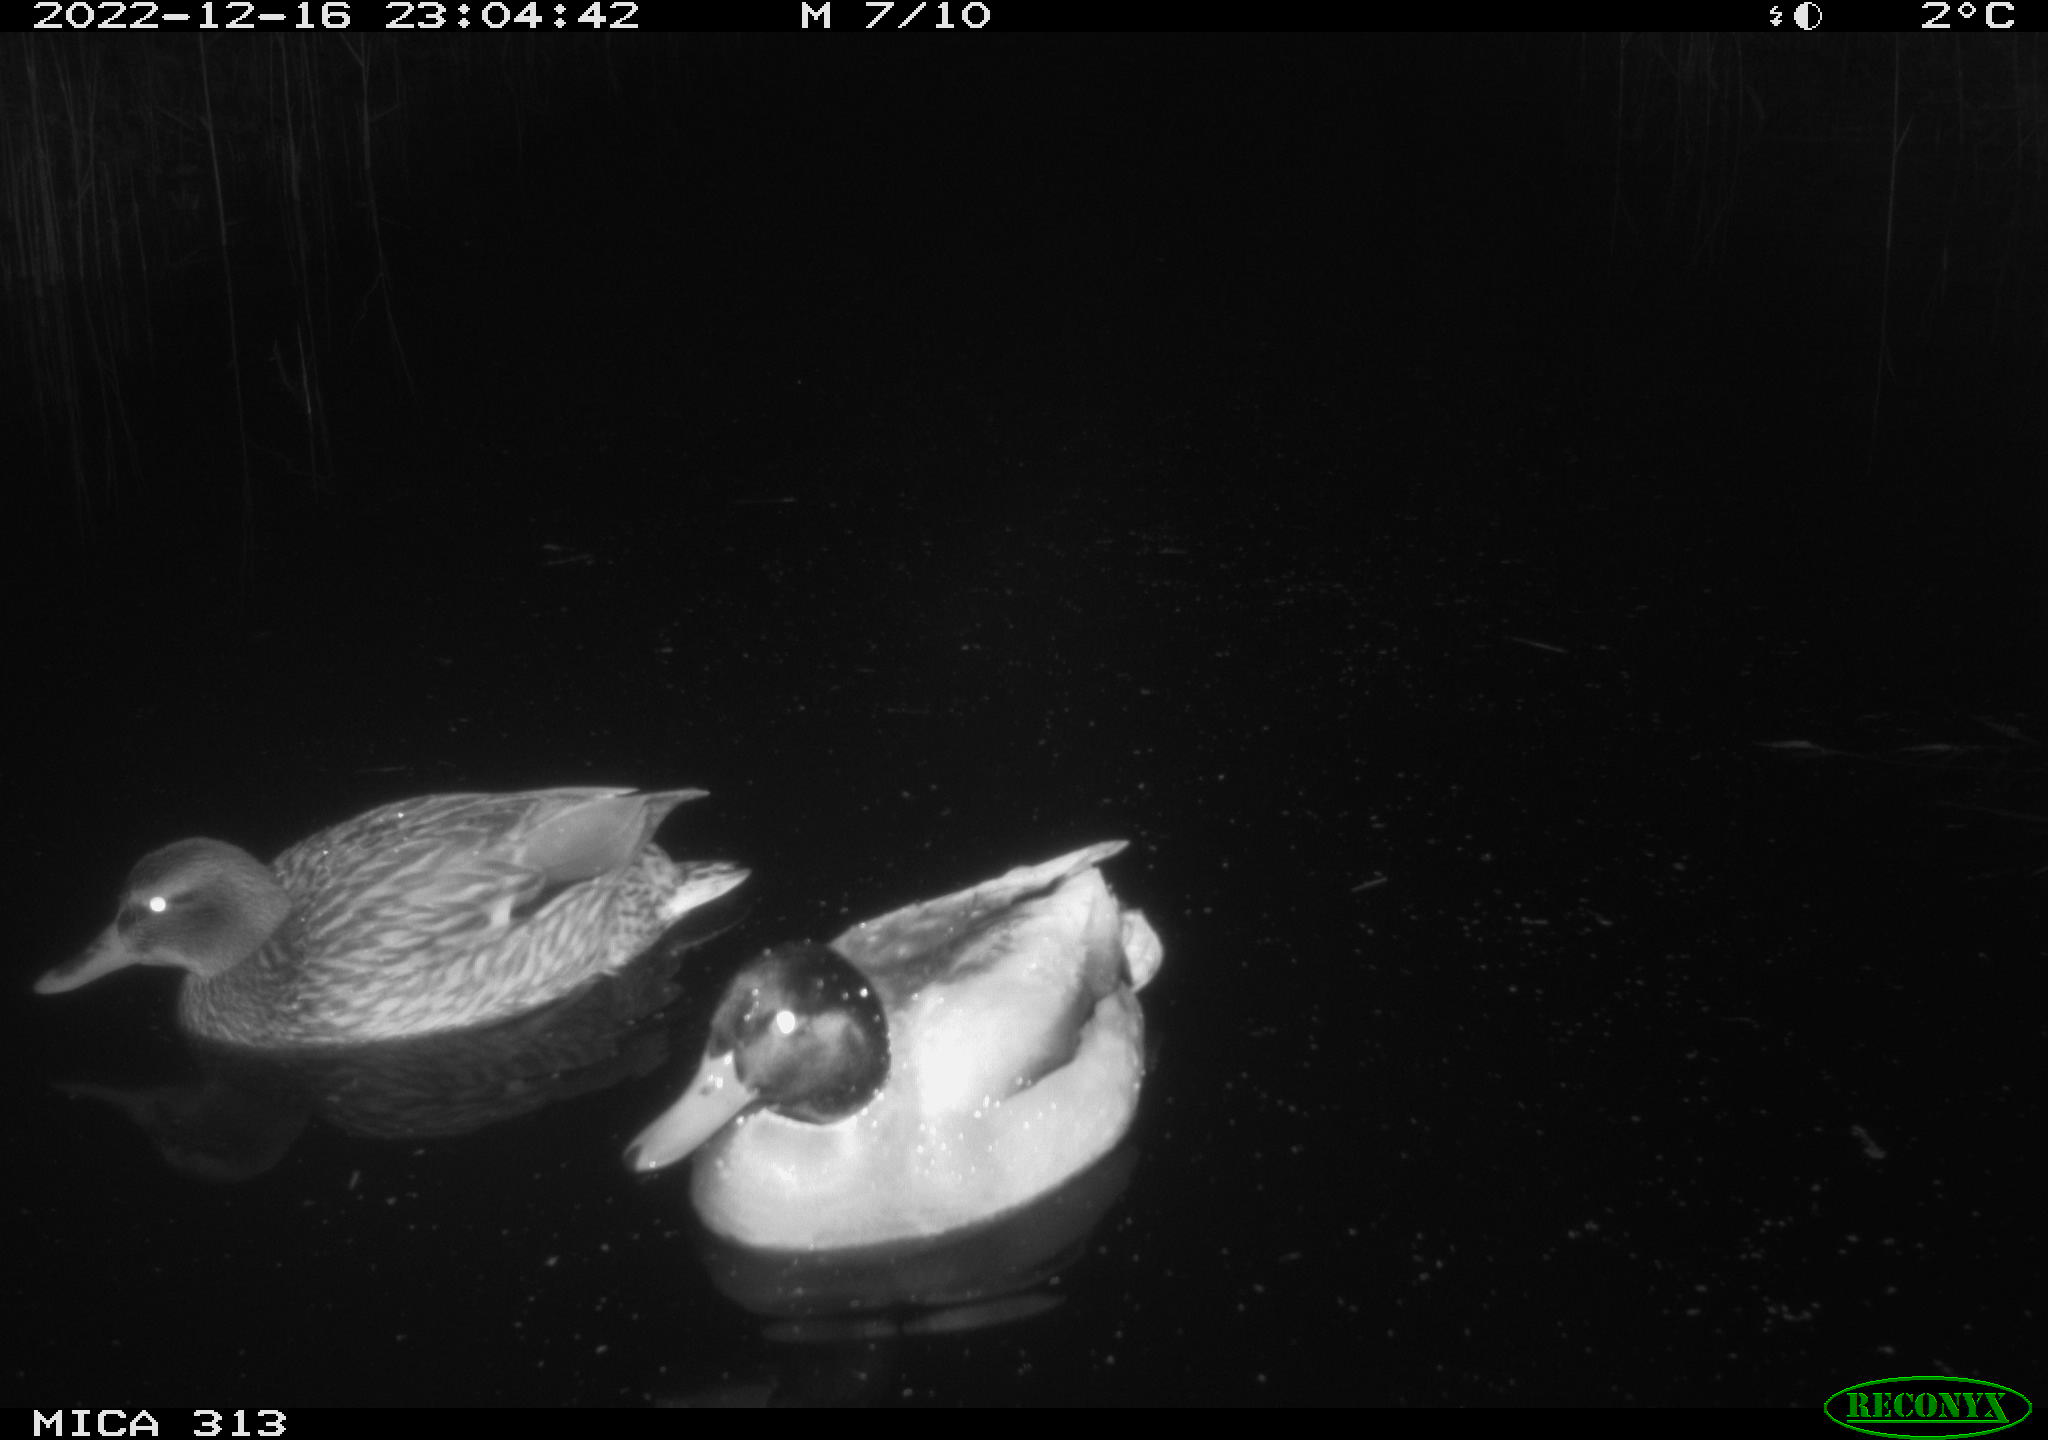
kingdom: Animalia
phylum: Chordata
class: Aves
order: Anseriformes
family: Anatidae
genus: Anas
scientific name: Anas
